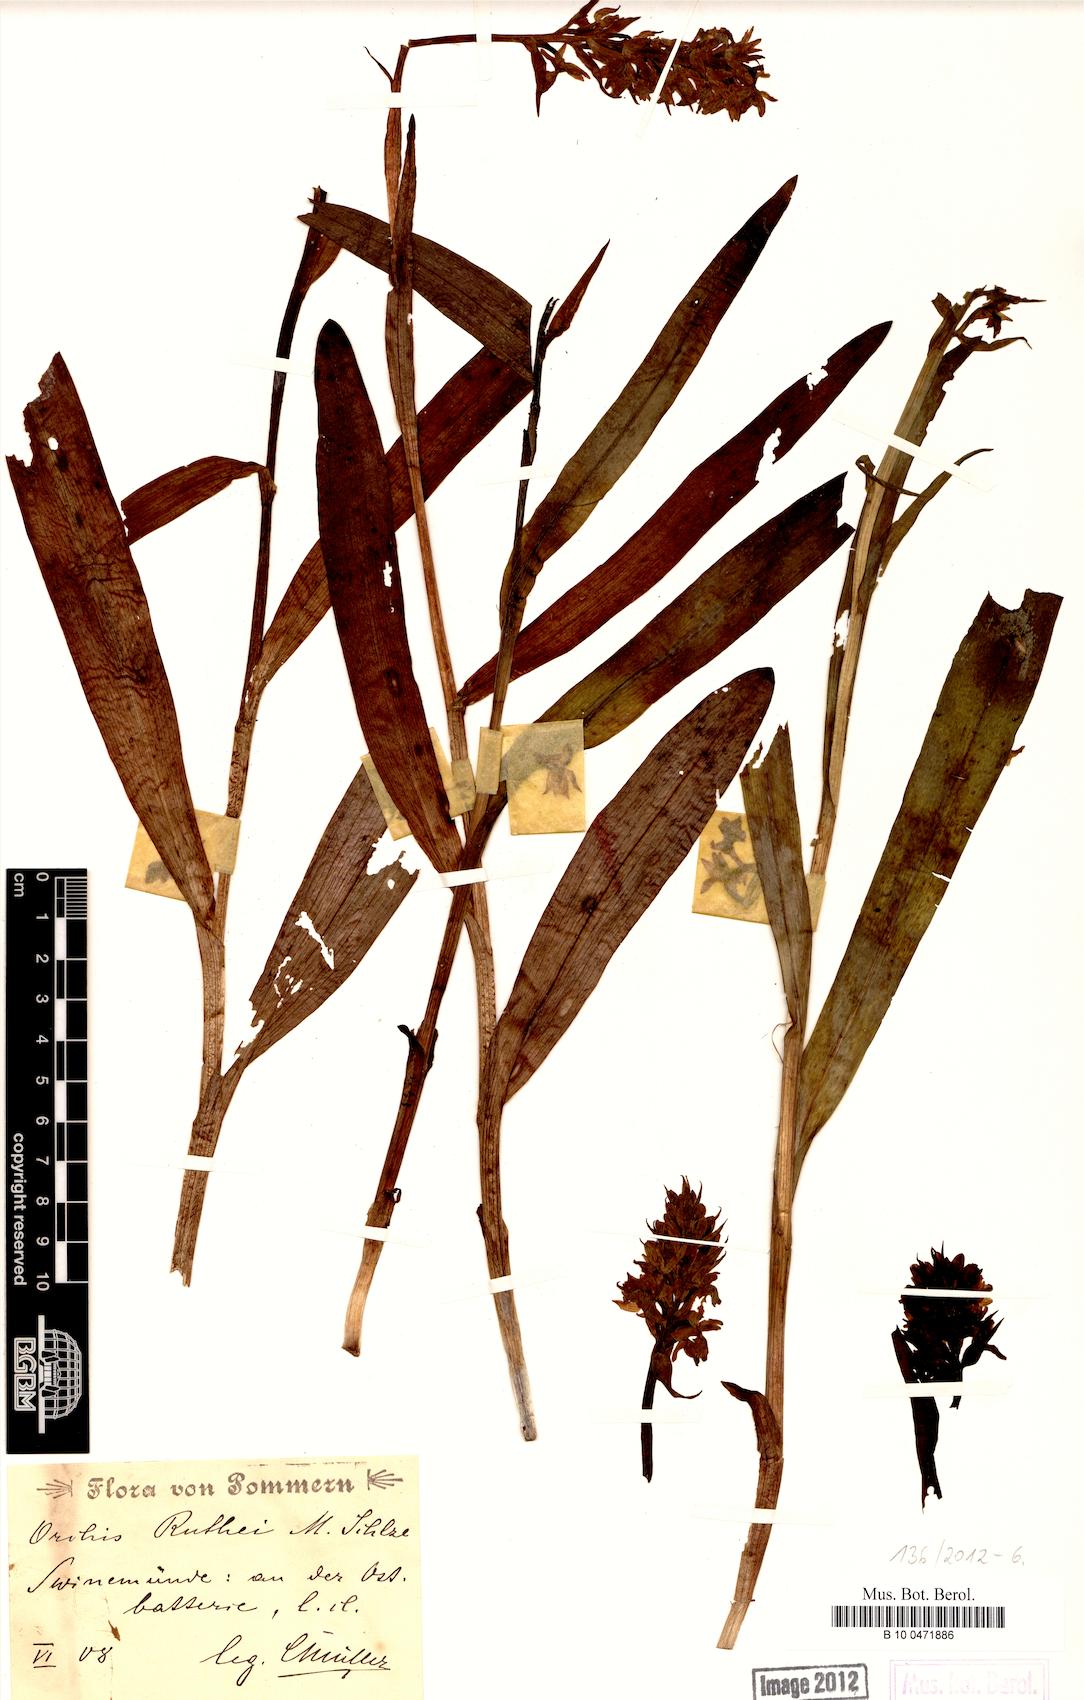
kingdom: Plantae
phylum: Tracheophyta
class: Liliopsida
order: Asparagales
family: Orchidaceae
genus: Dactylorhiza
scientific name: Dactylorhiza kerneriorum
